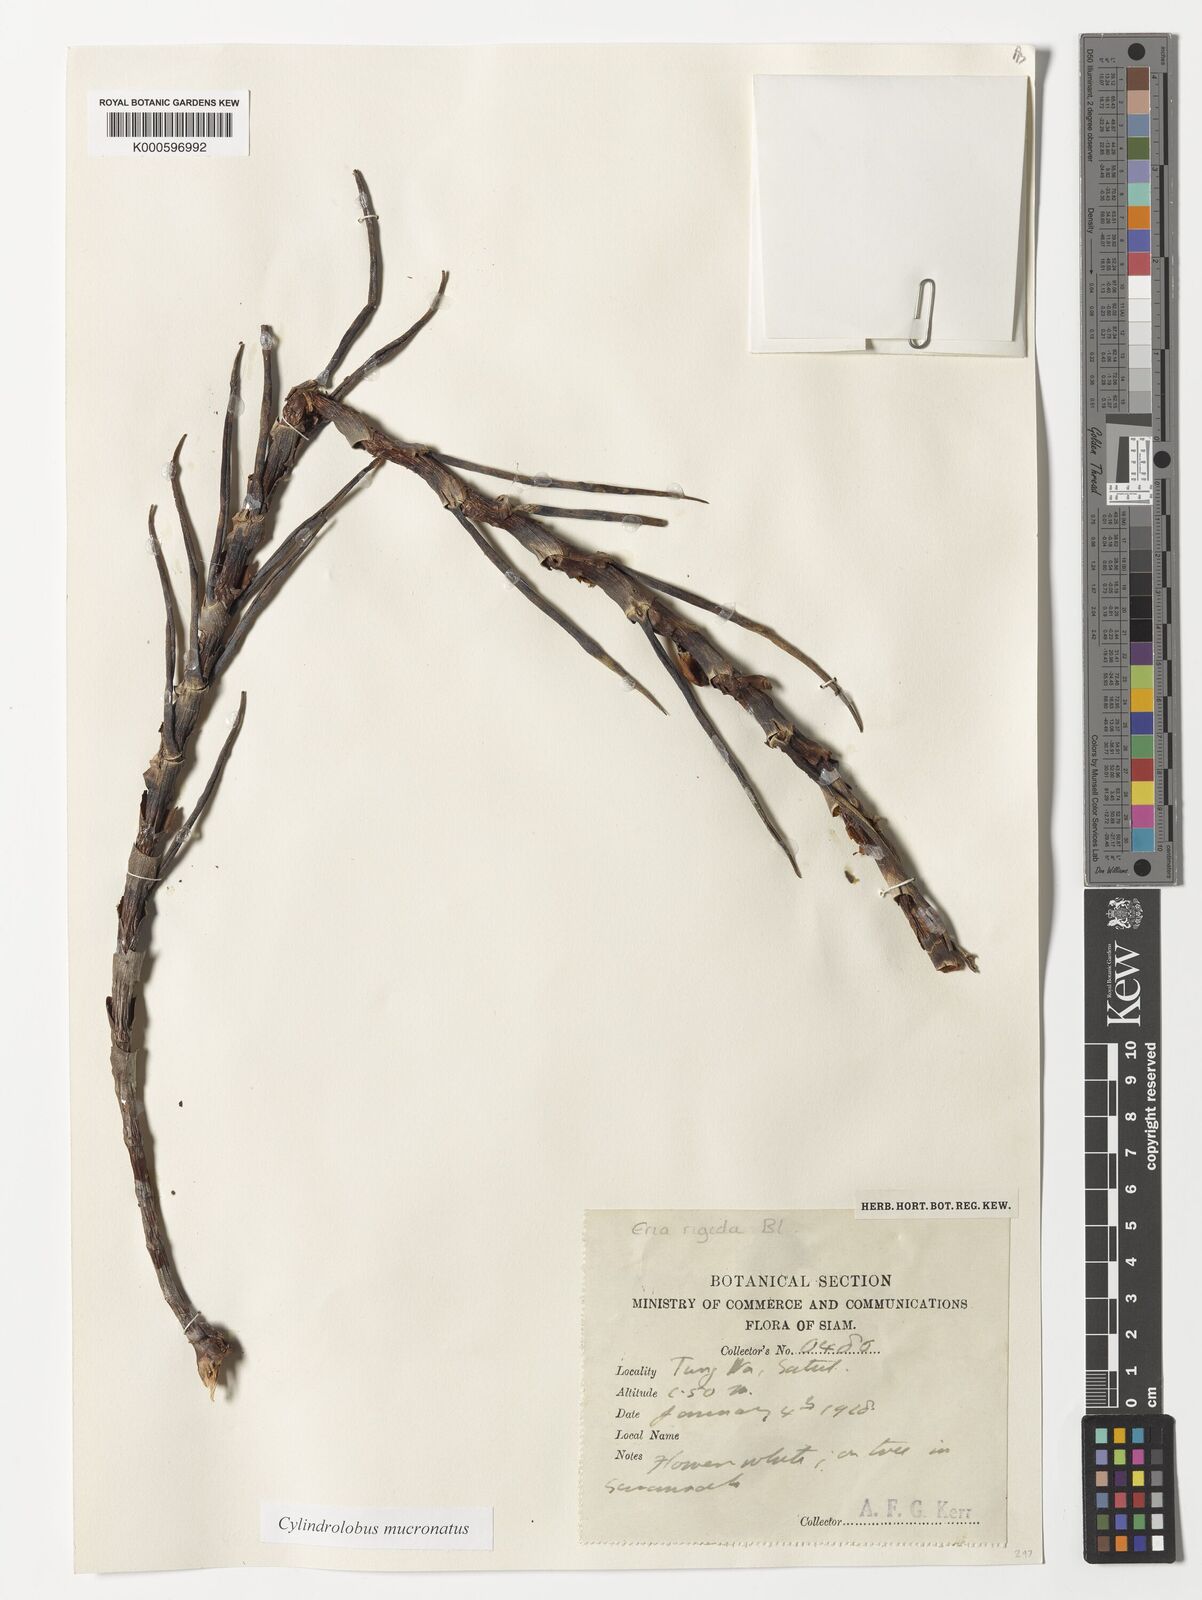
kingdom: Plantae
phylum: Tracheophyta
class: Liliopsida
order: Asparagales
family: Orchidaceae
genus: Cylindrolobus
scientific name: Cylindrolobus mucronatus
